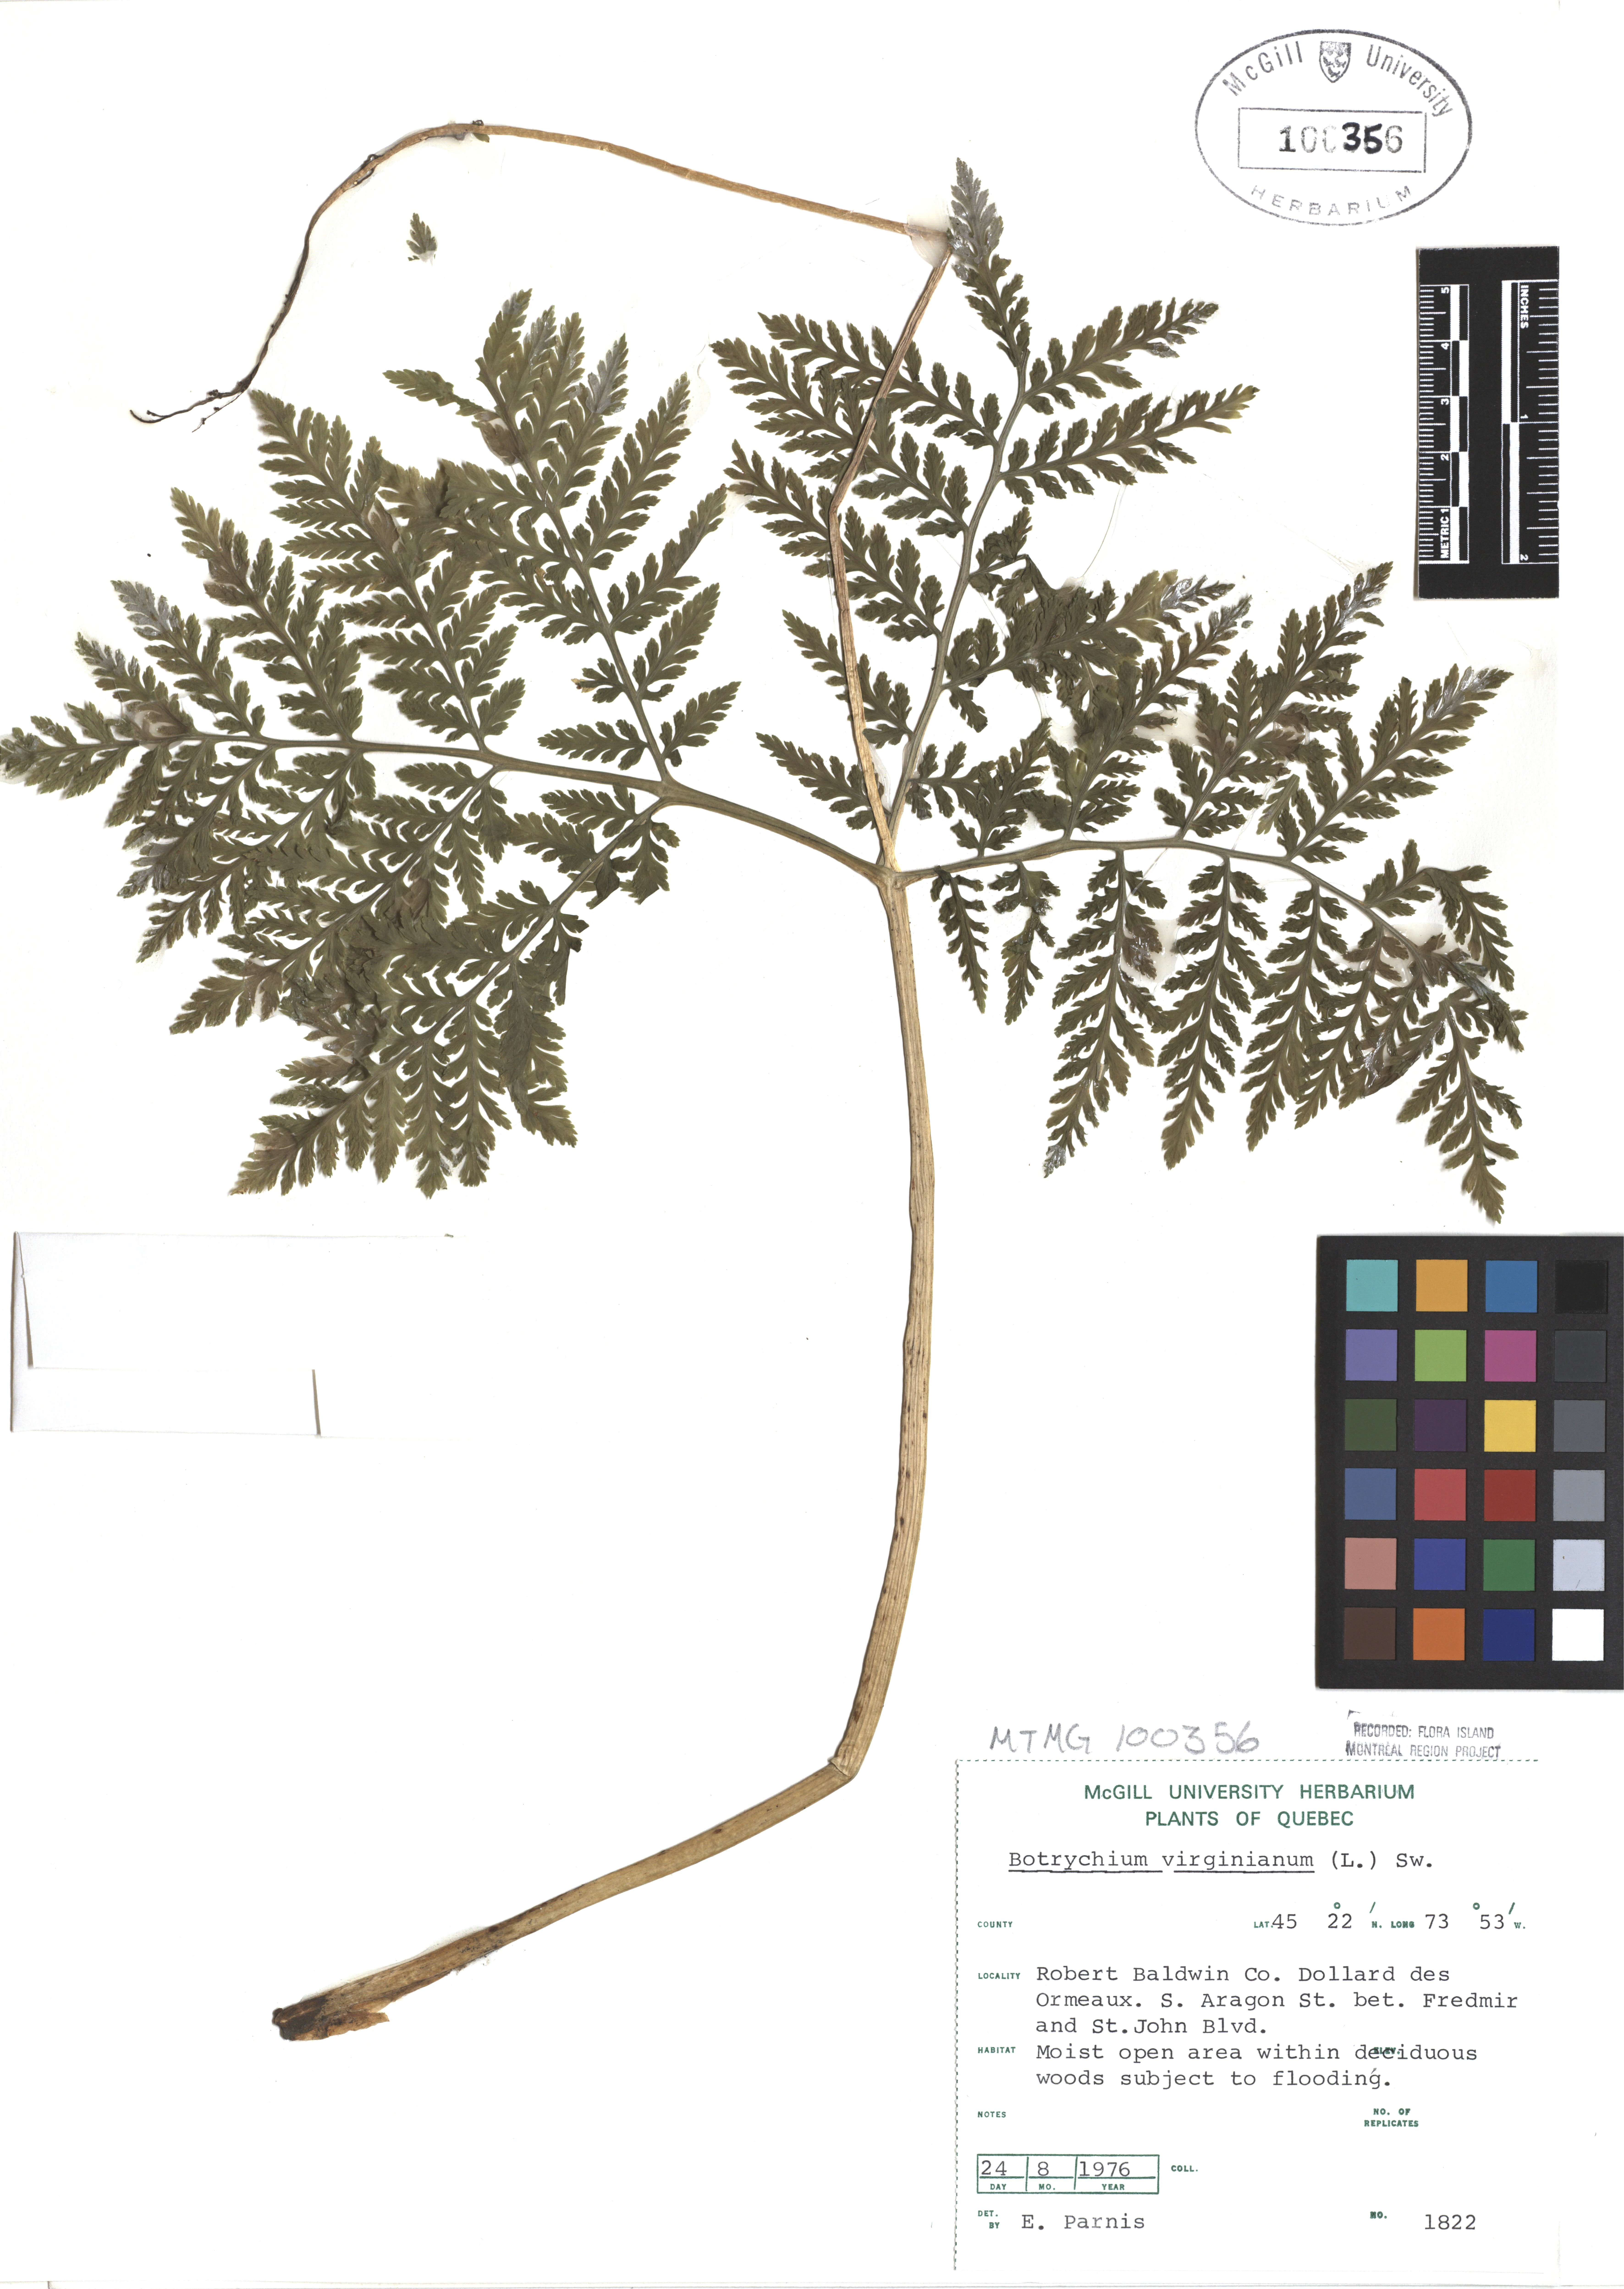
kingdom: Plantae
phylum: Tracheophyta
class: Polypodiopsida
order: Ophioglossales
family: Ophioglossaceae
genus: Botrypus
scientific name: Botrypus virginianus
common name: Common grapefern
